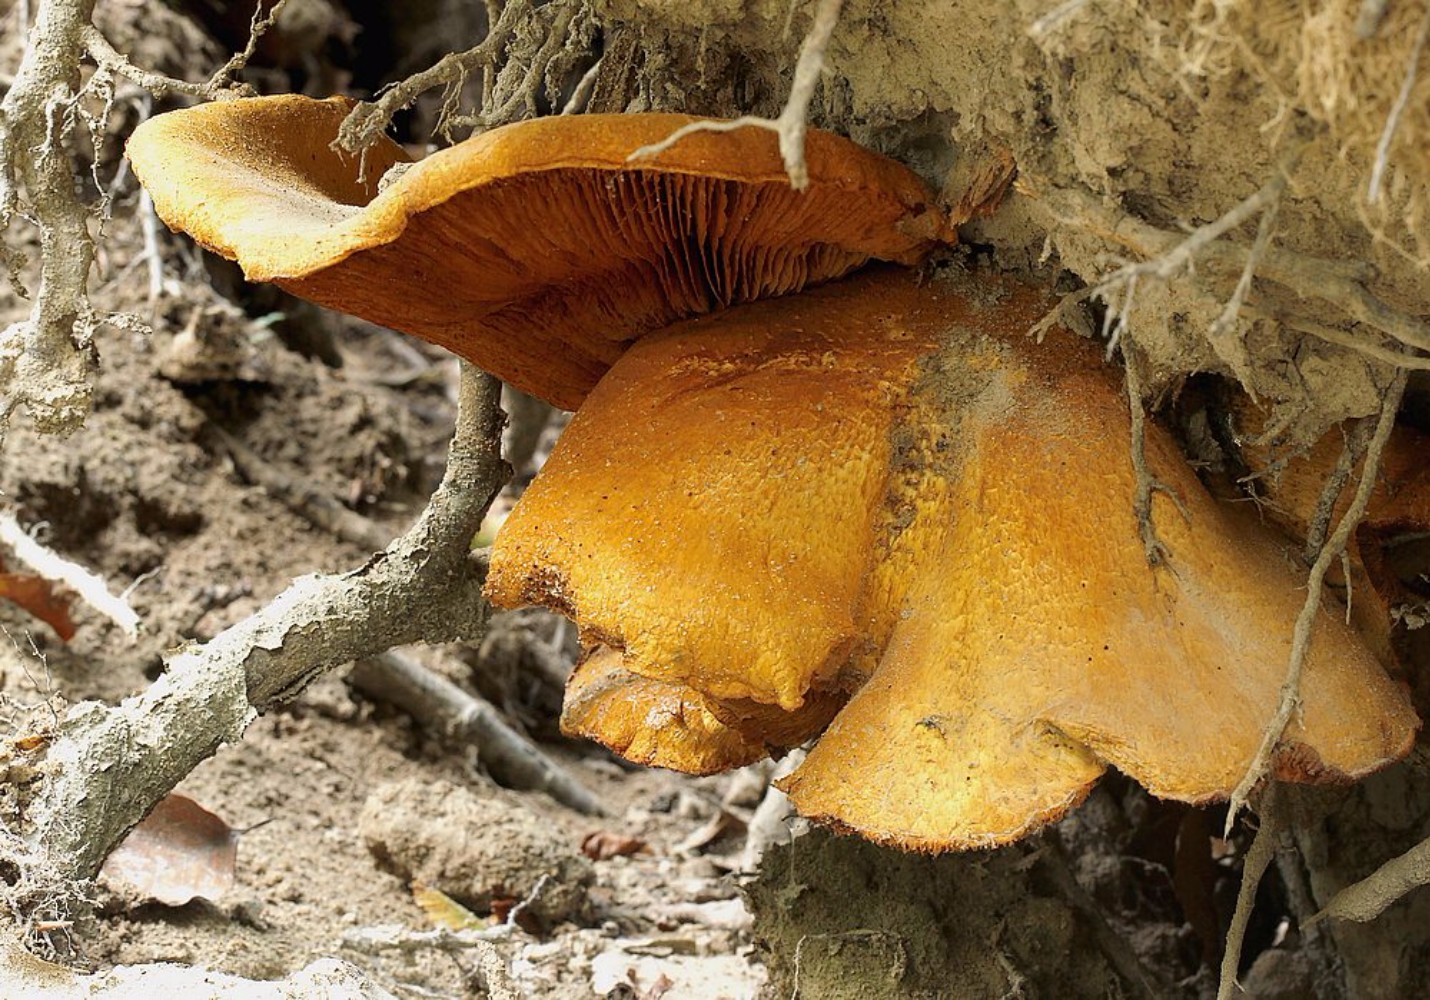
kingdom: Fungi
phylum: Basidiomycota
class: Agaricomycetes
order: Agaricales
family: Hymenogastraceae
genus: Gymnopilus
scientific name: Gymnopilus spectabilis
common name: fibret flammehat
